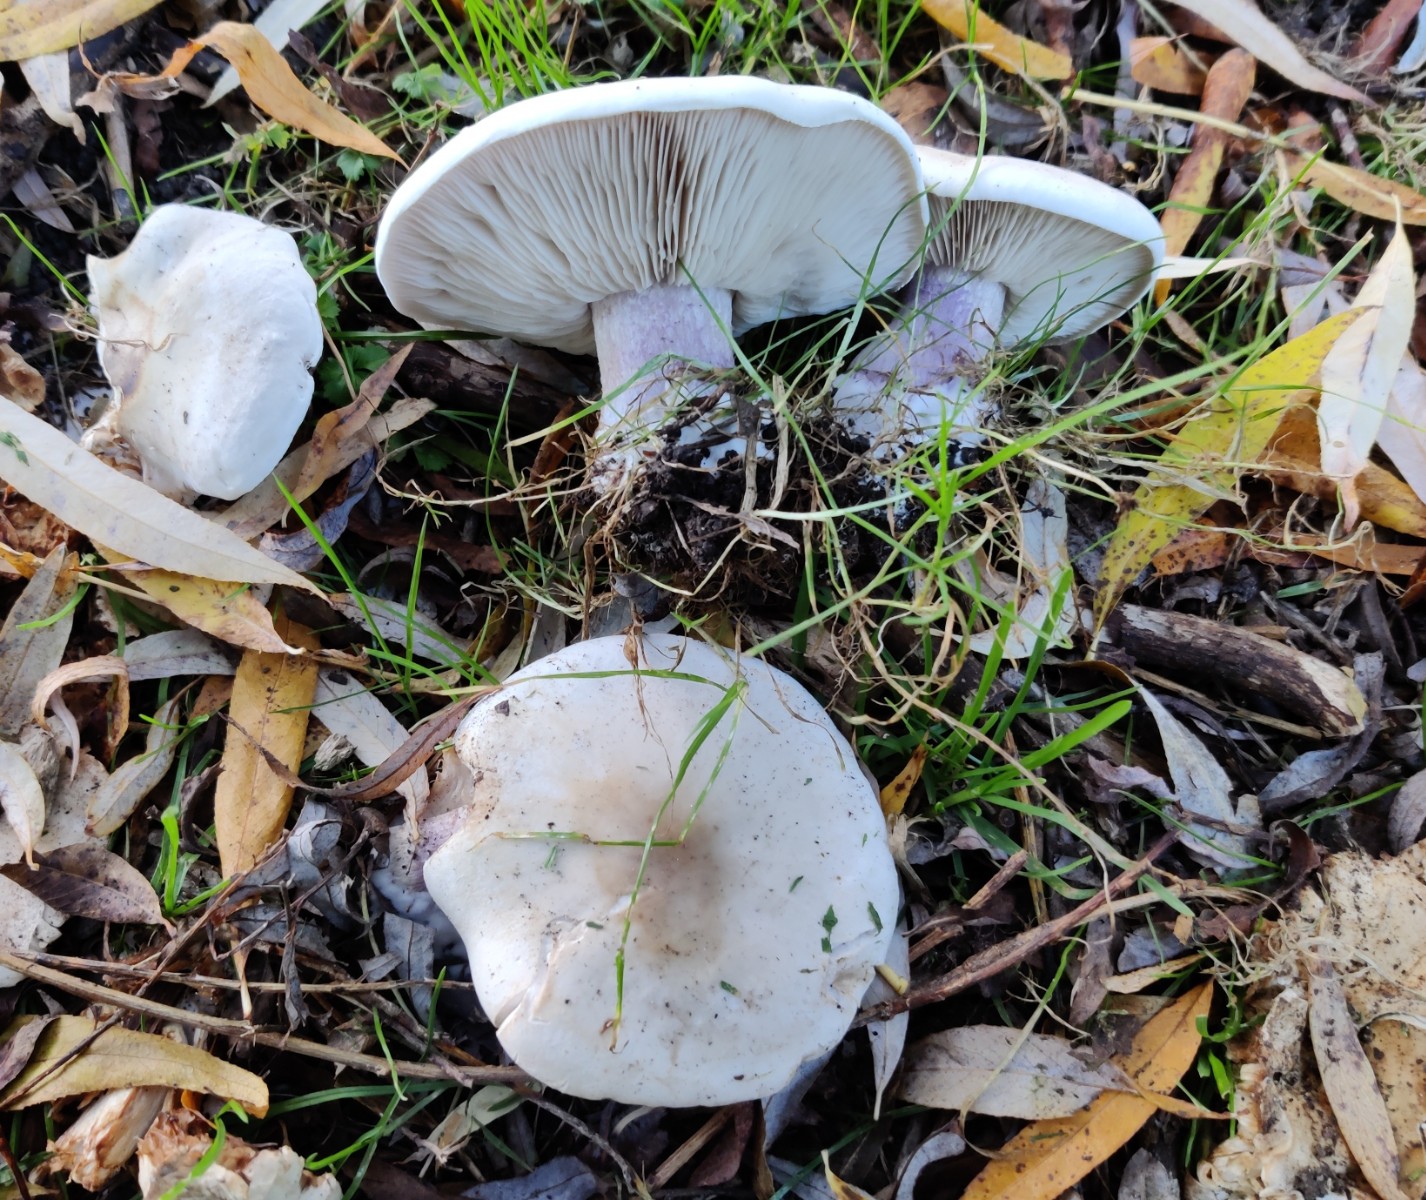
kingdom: Fungi
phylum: Basidiomycota
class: Agaricomycetes
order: Agaricales
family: Tricholomataceae
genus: Lepista
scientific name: Lepista personata
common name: bleg hekseringshat
